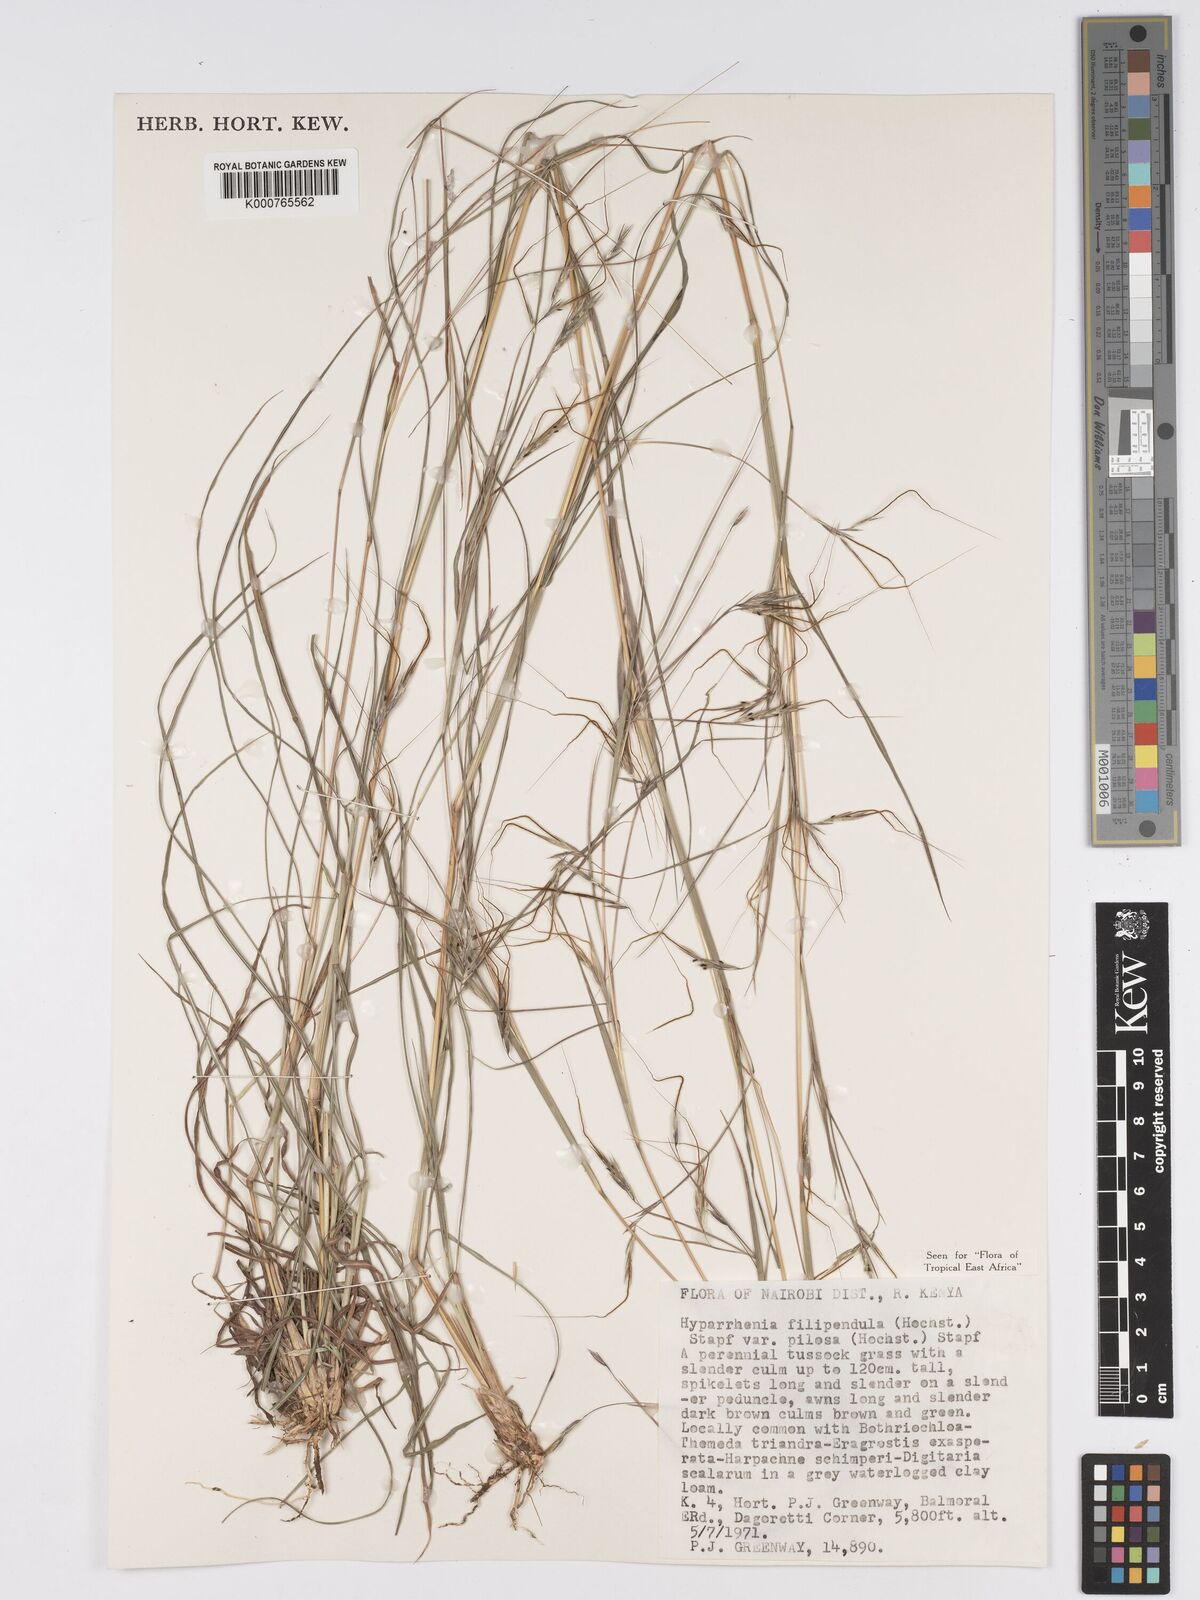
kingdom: Plantae
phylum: Tracheophyta
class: Liliopsida
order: Poales
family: Poaceae
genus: Hyparrhenia
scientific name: Hyparrhenia filipendula
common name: Tambookie grass
